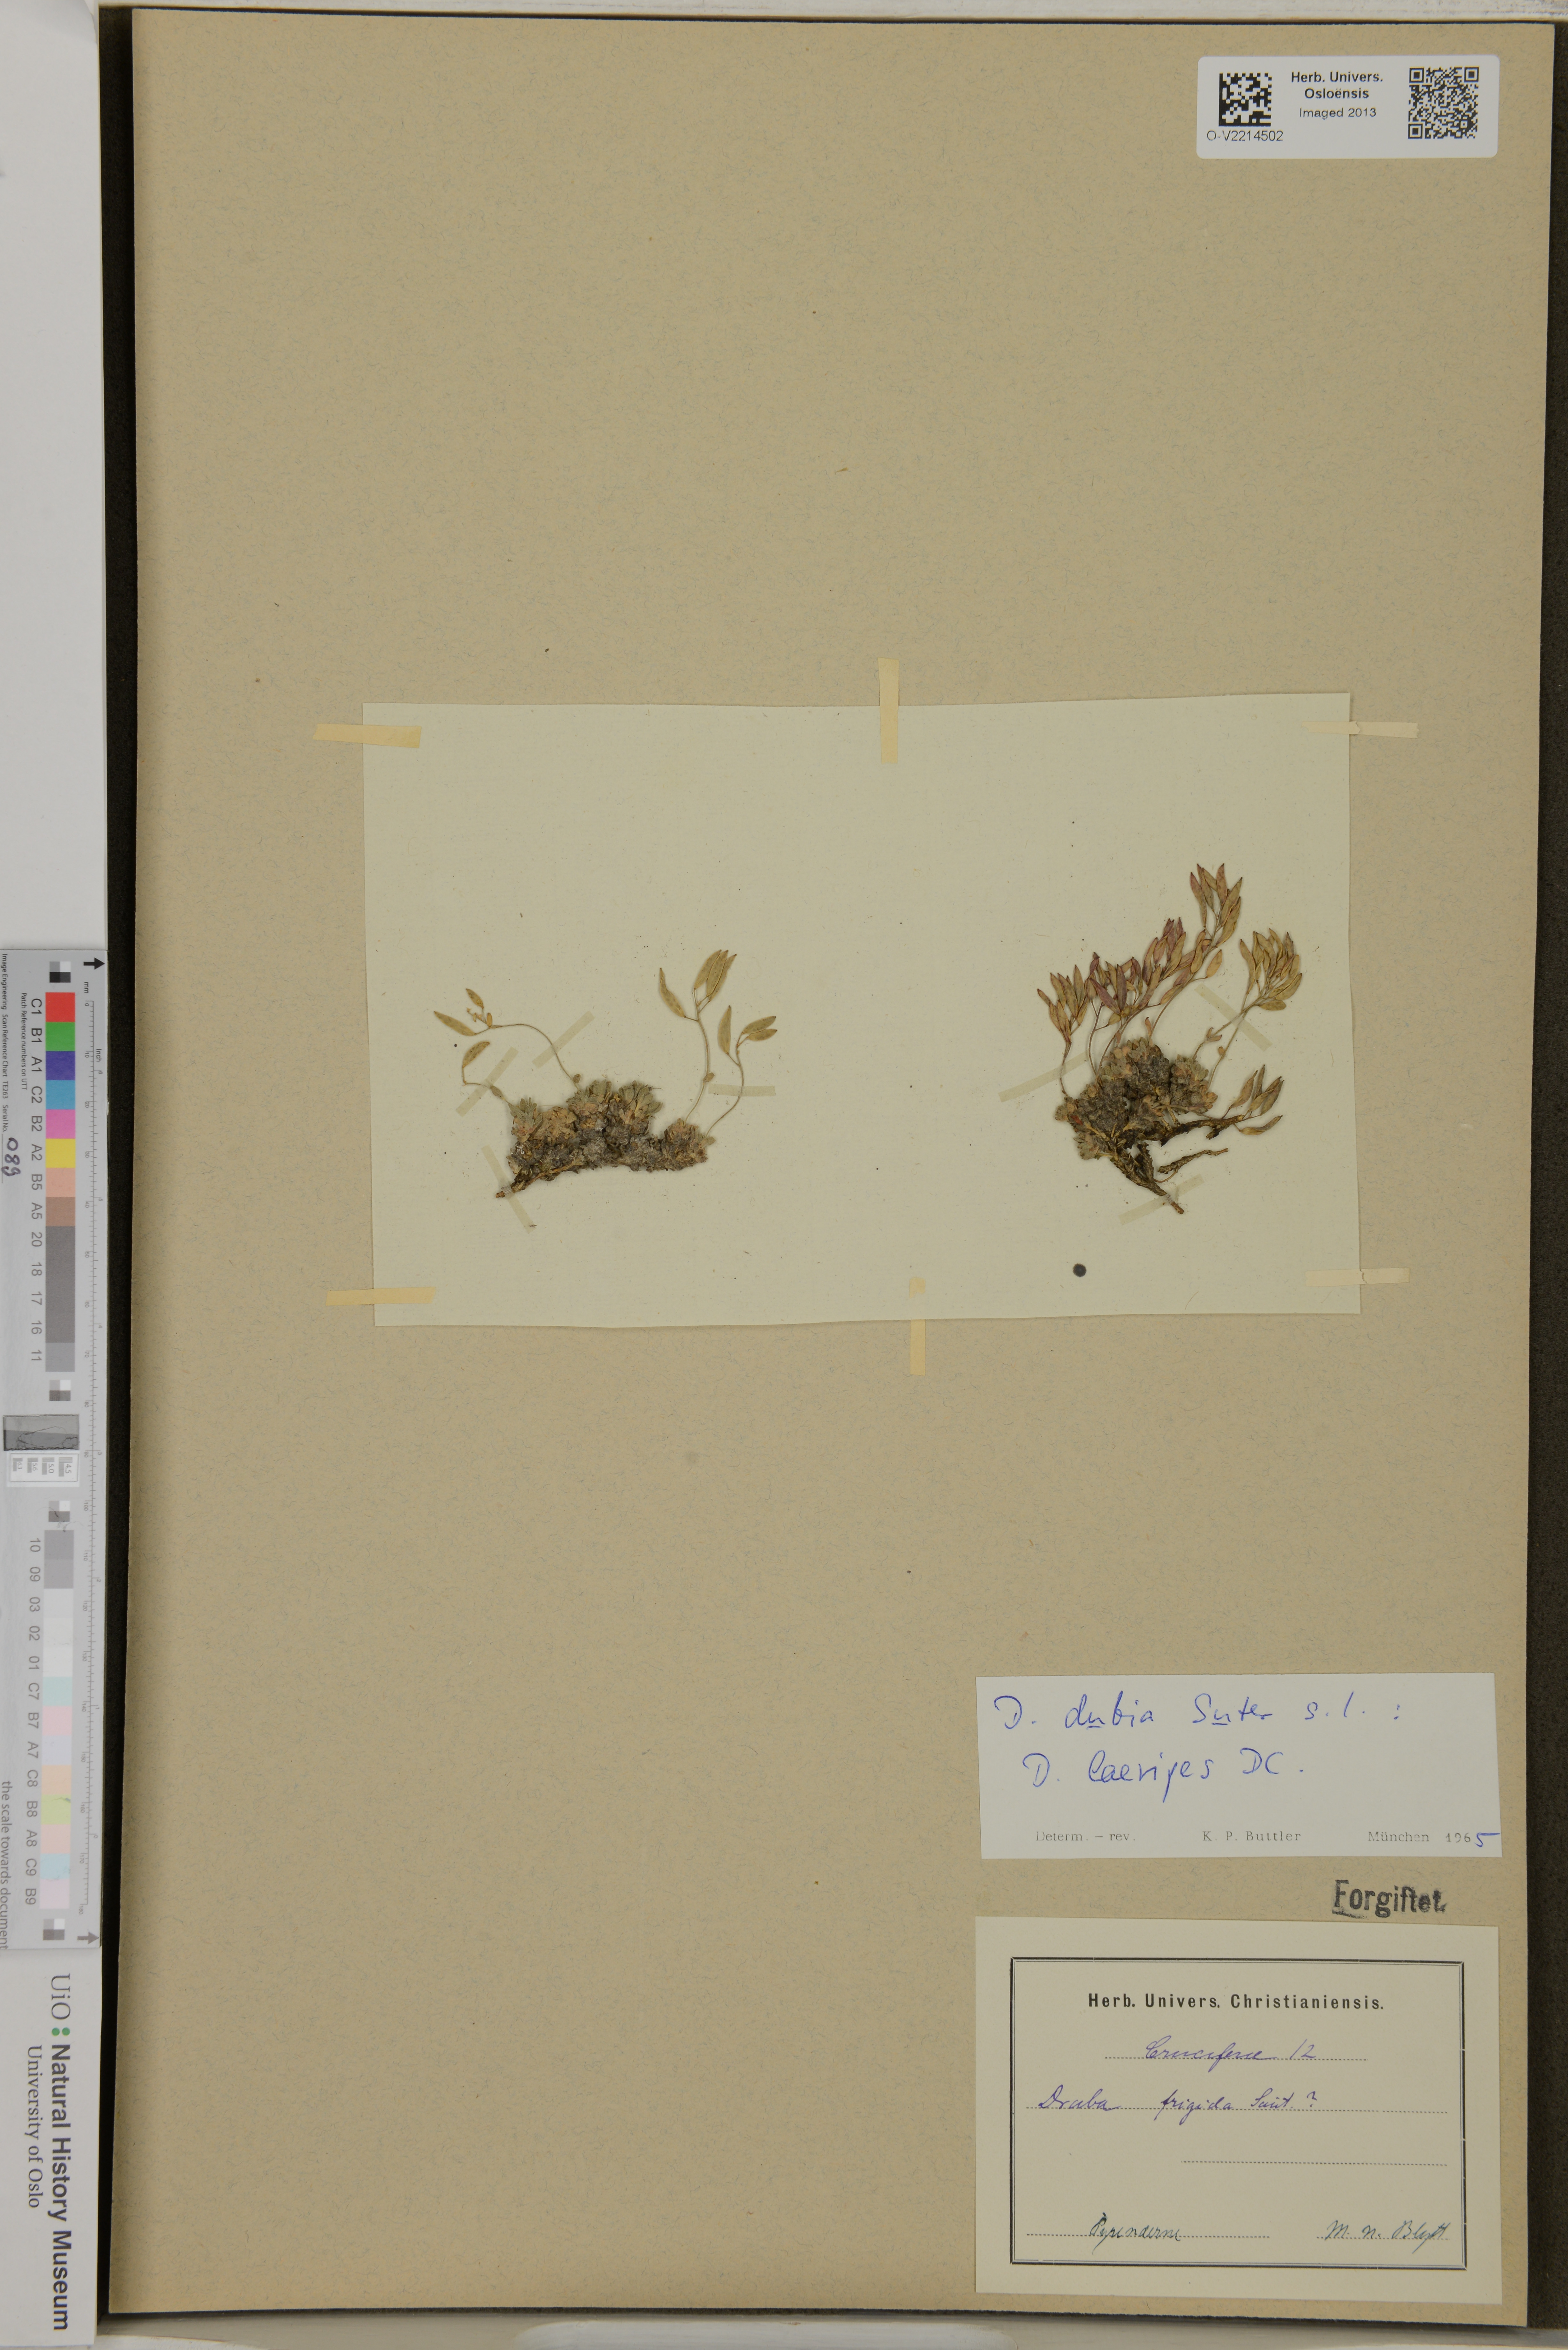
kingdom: Plantae
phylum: Tracheophyta
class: Magnoliopsida
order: Brassicales
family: Brassicaceae
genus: Draba
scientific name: Draba dubia
